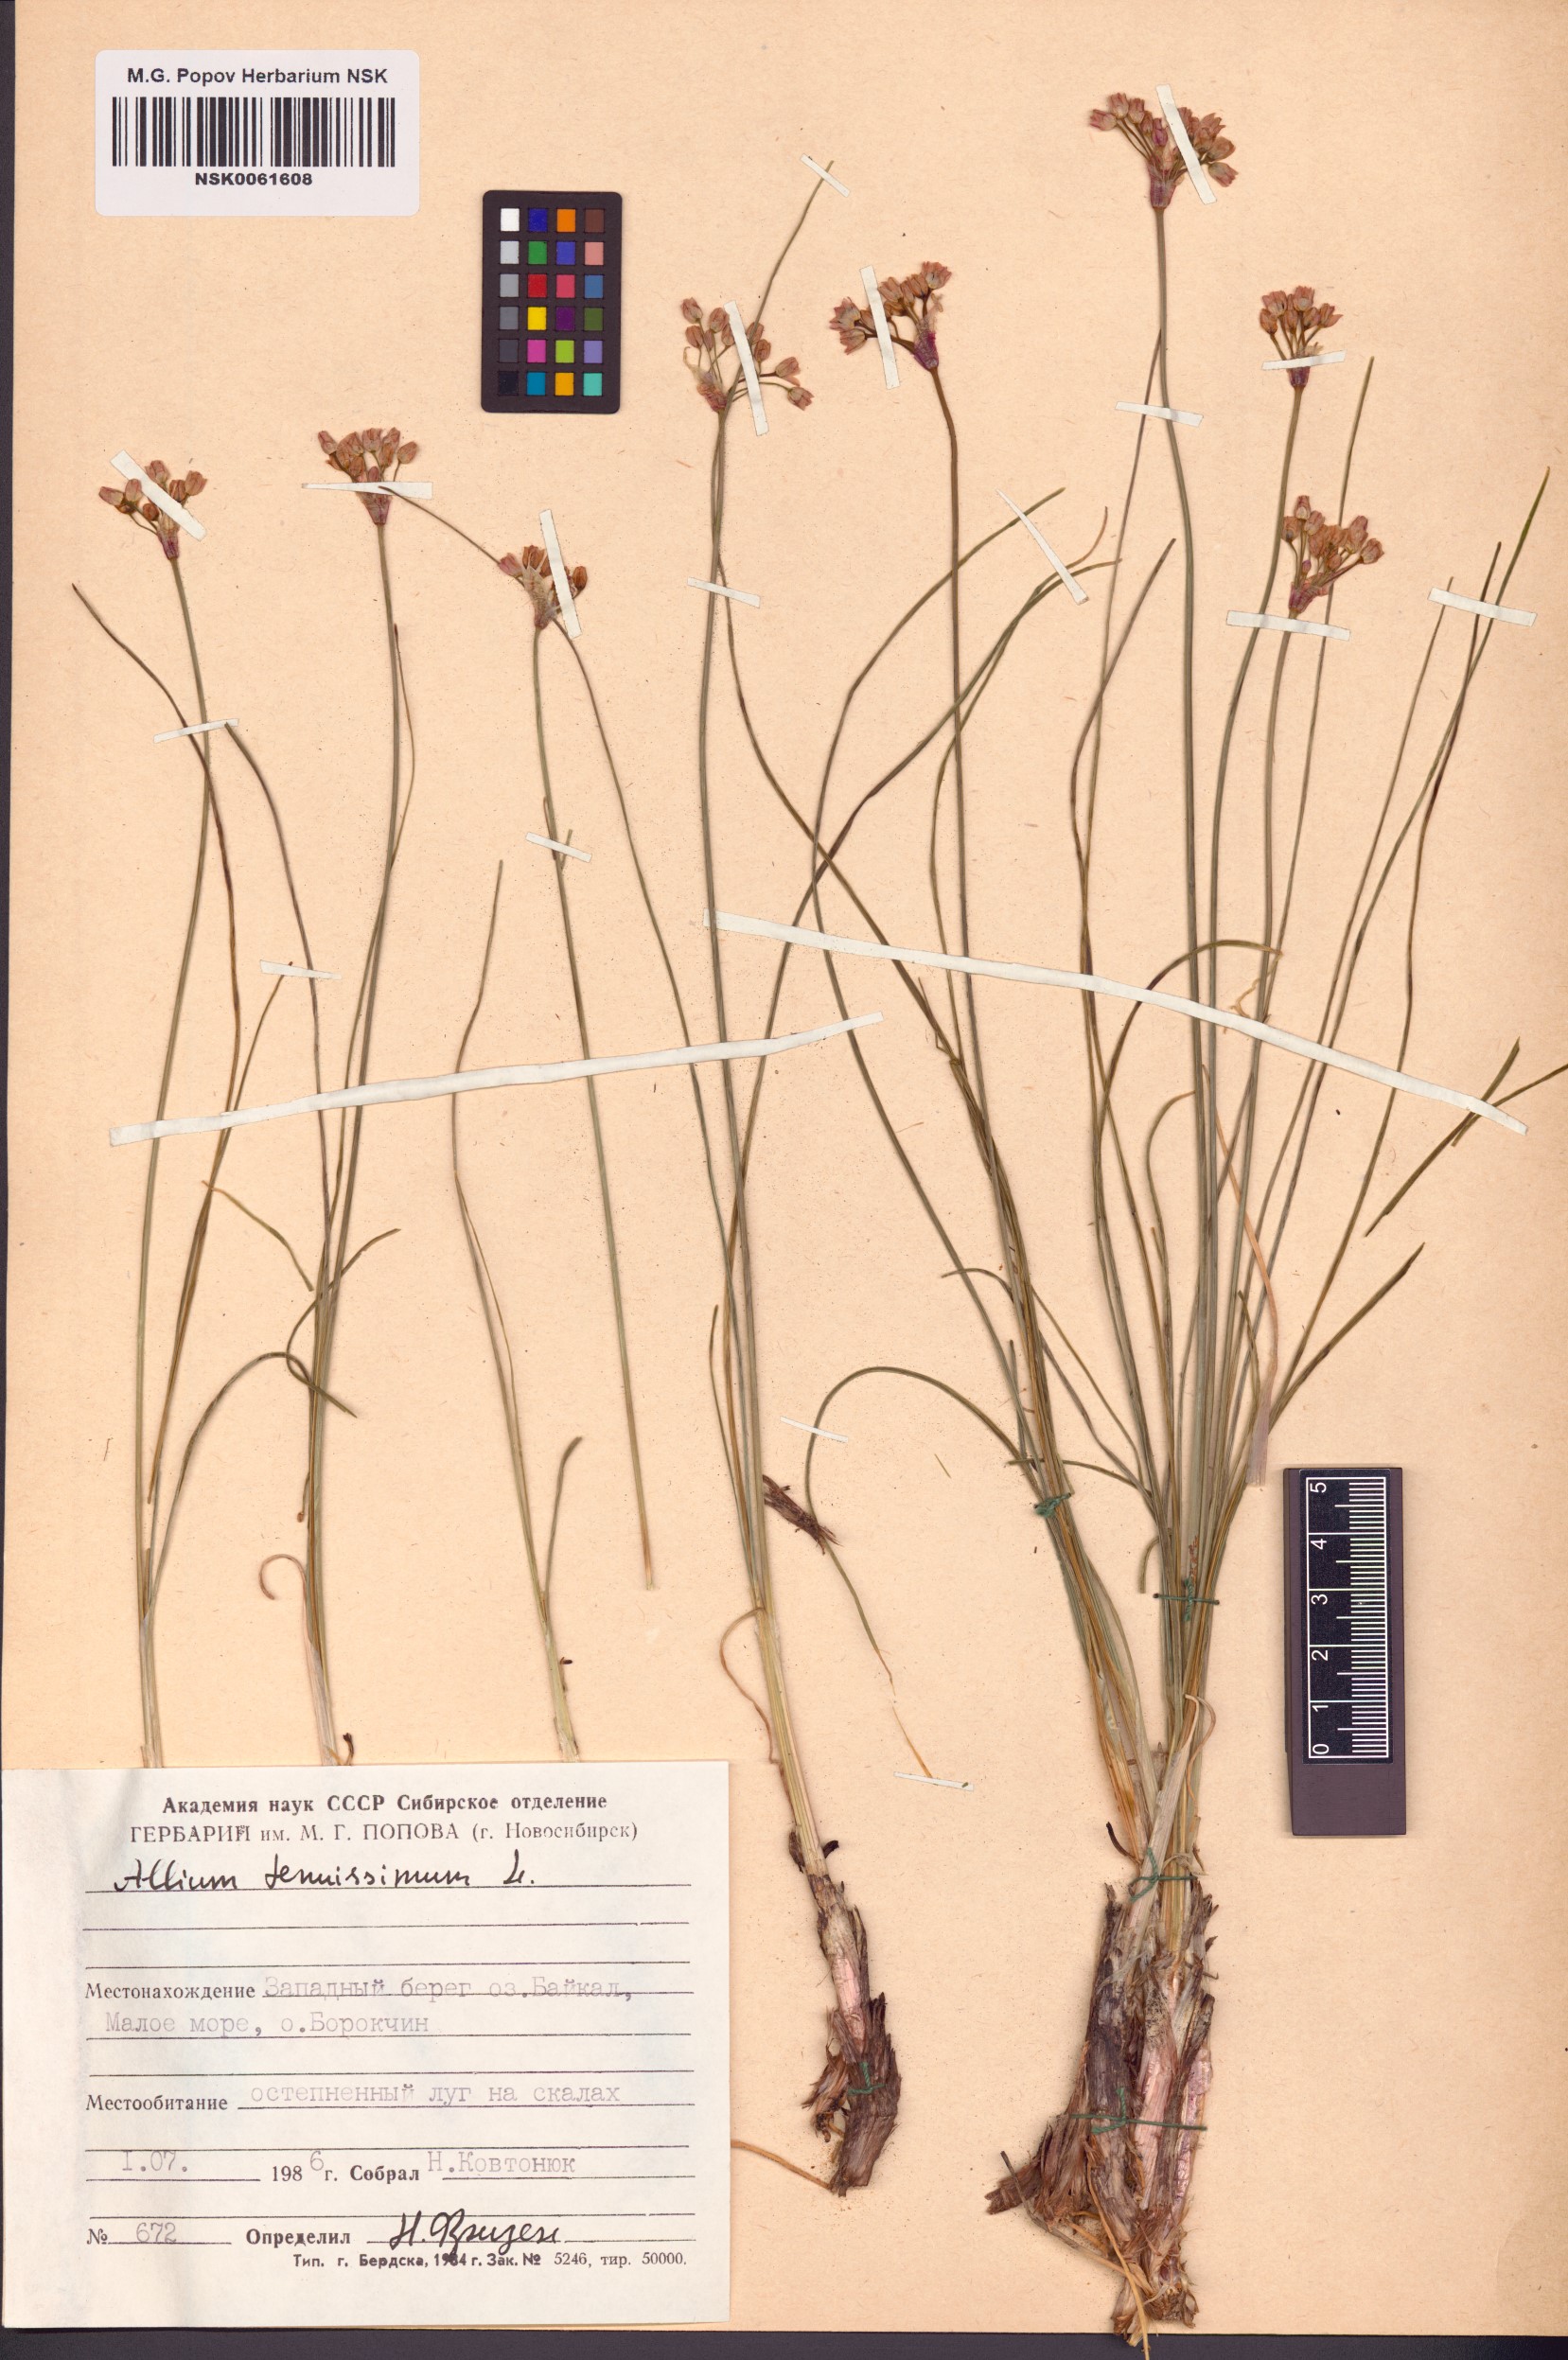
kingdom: Plantae
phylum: Tracheophyta
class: Liliopsida
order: Asparagales
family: Amaryllidaceae
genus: Allium
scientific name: Allium tenuissimum
